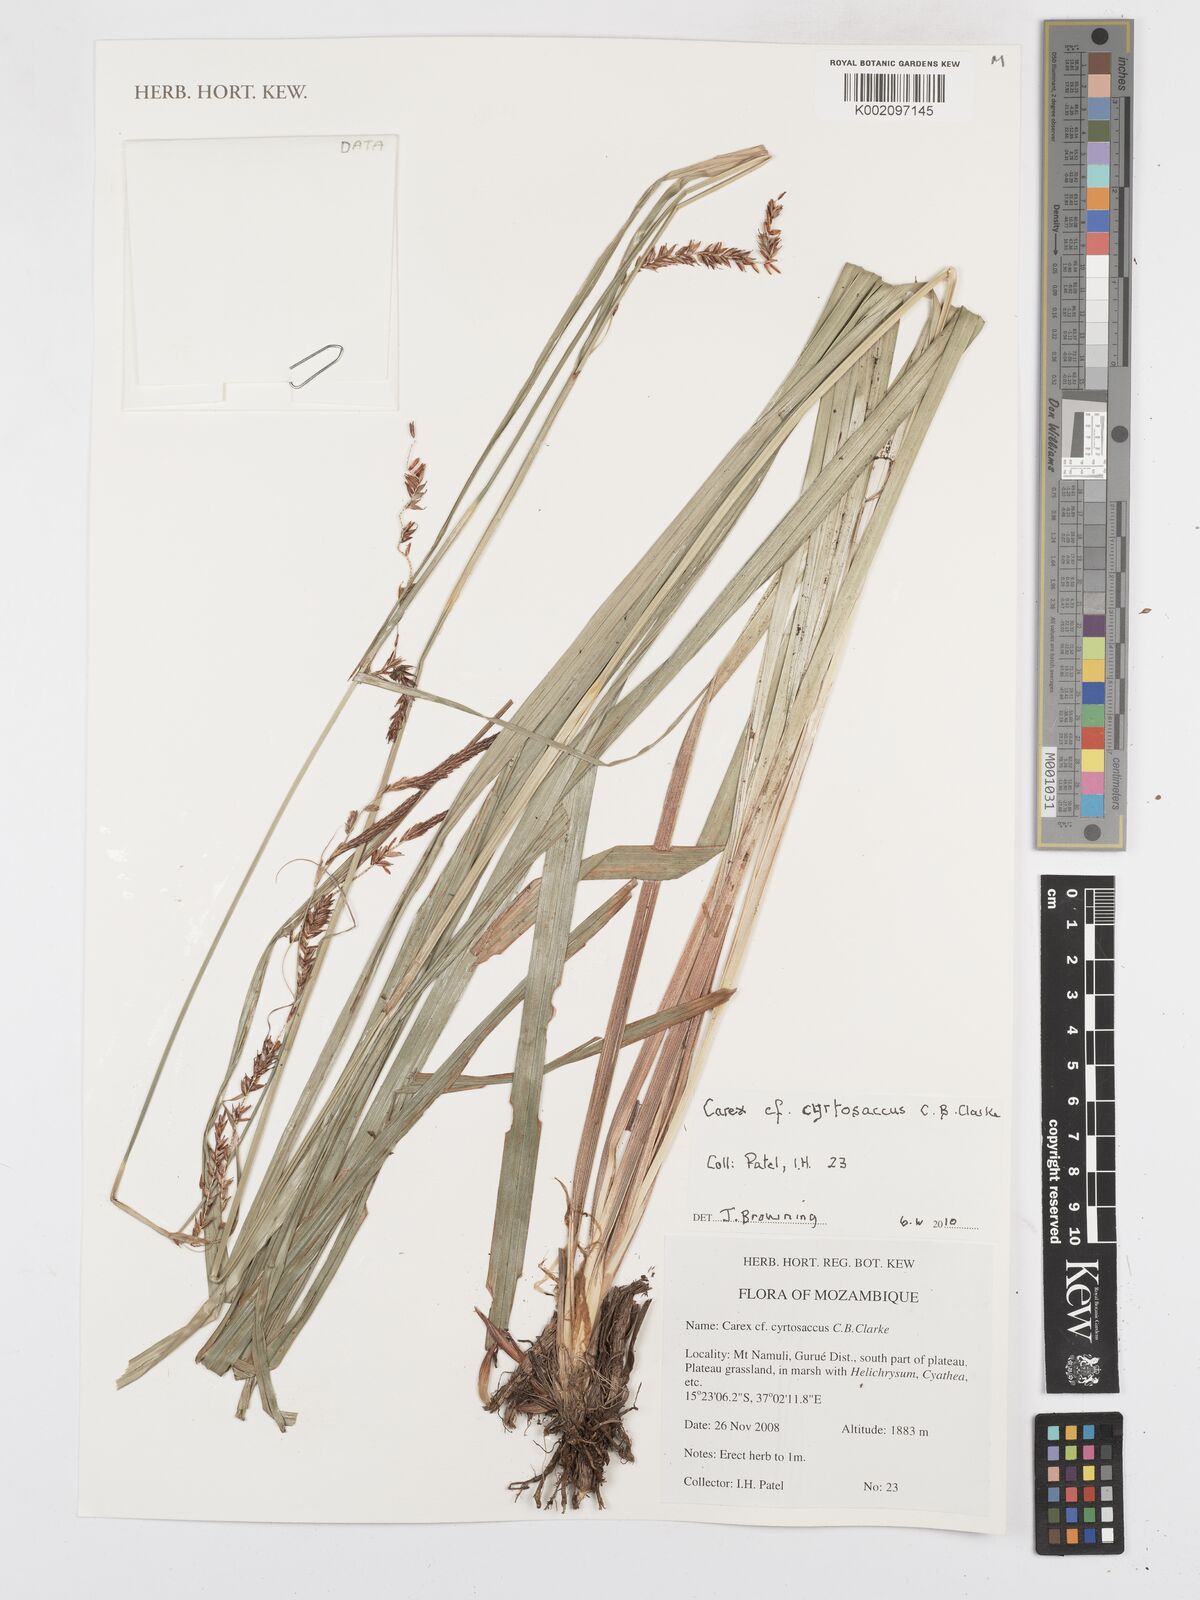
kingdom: Plantae
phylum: Tracheophyta
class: Liliopsida
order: Poales
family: Cyperaceae
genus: Carex
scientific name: Carex vallis-rosetto
